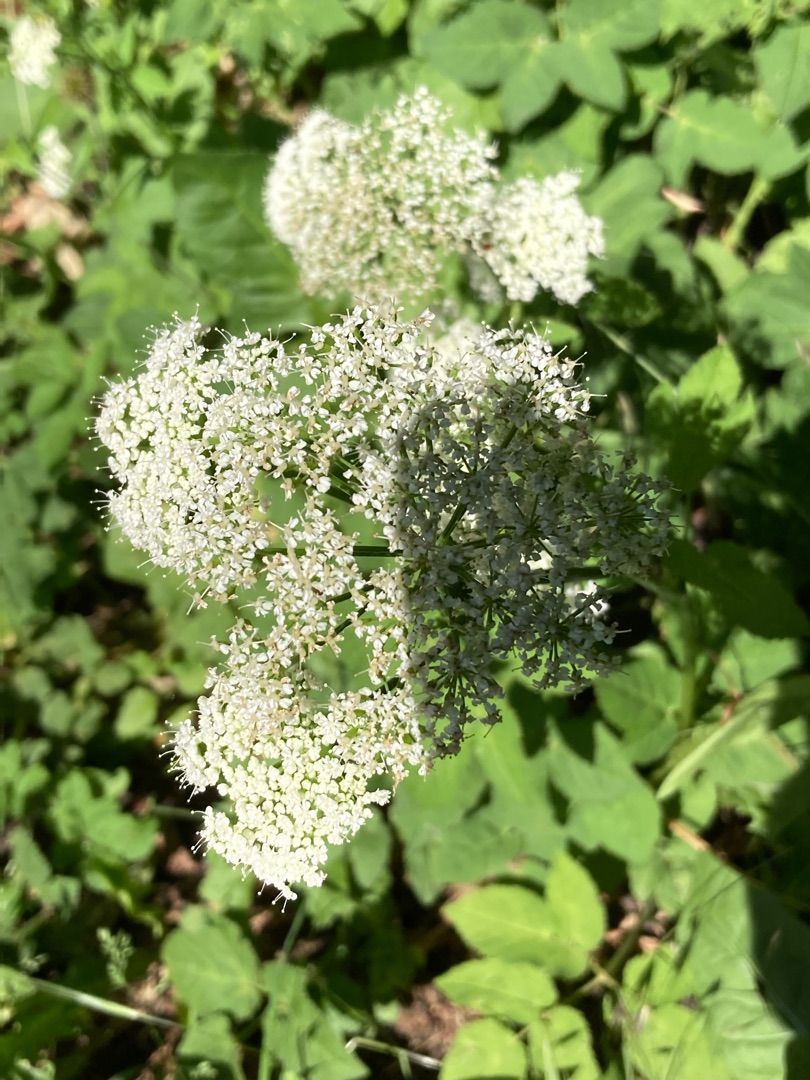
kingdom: Plantae
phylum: Tracheophyta
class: Magnoliopsida
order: Apiales
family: Apiaceae
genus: Aegopodium
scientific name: Aegopodium podagraria
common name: Skvalderkål
